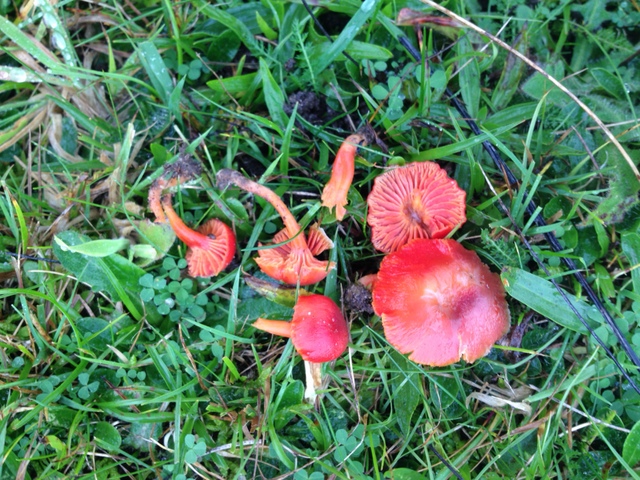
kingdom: Fungi
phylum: Basidiomycota
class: Agaricomycetes
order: Agaricales
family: Hygrophoraceae
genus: Hygrocybe
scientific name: Hygrocybe phaeococcinea
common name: sortdugget vokshat
